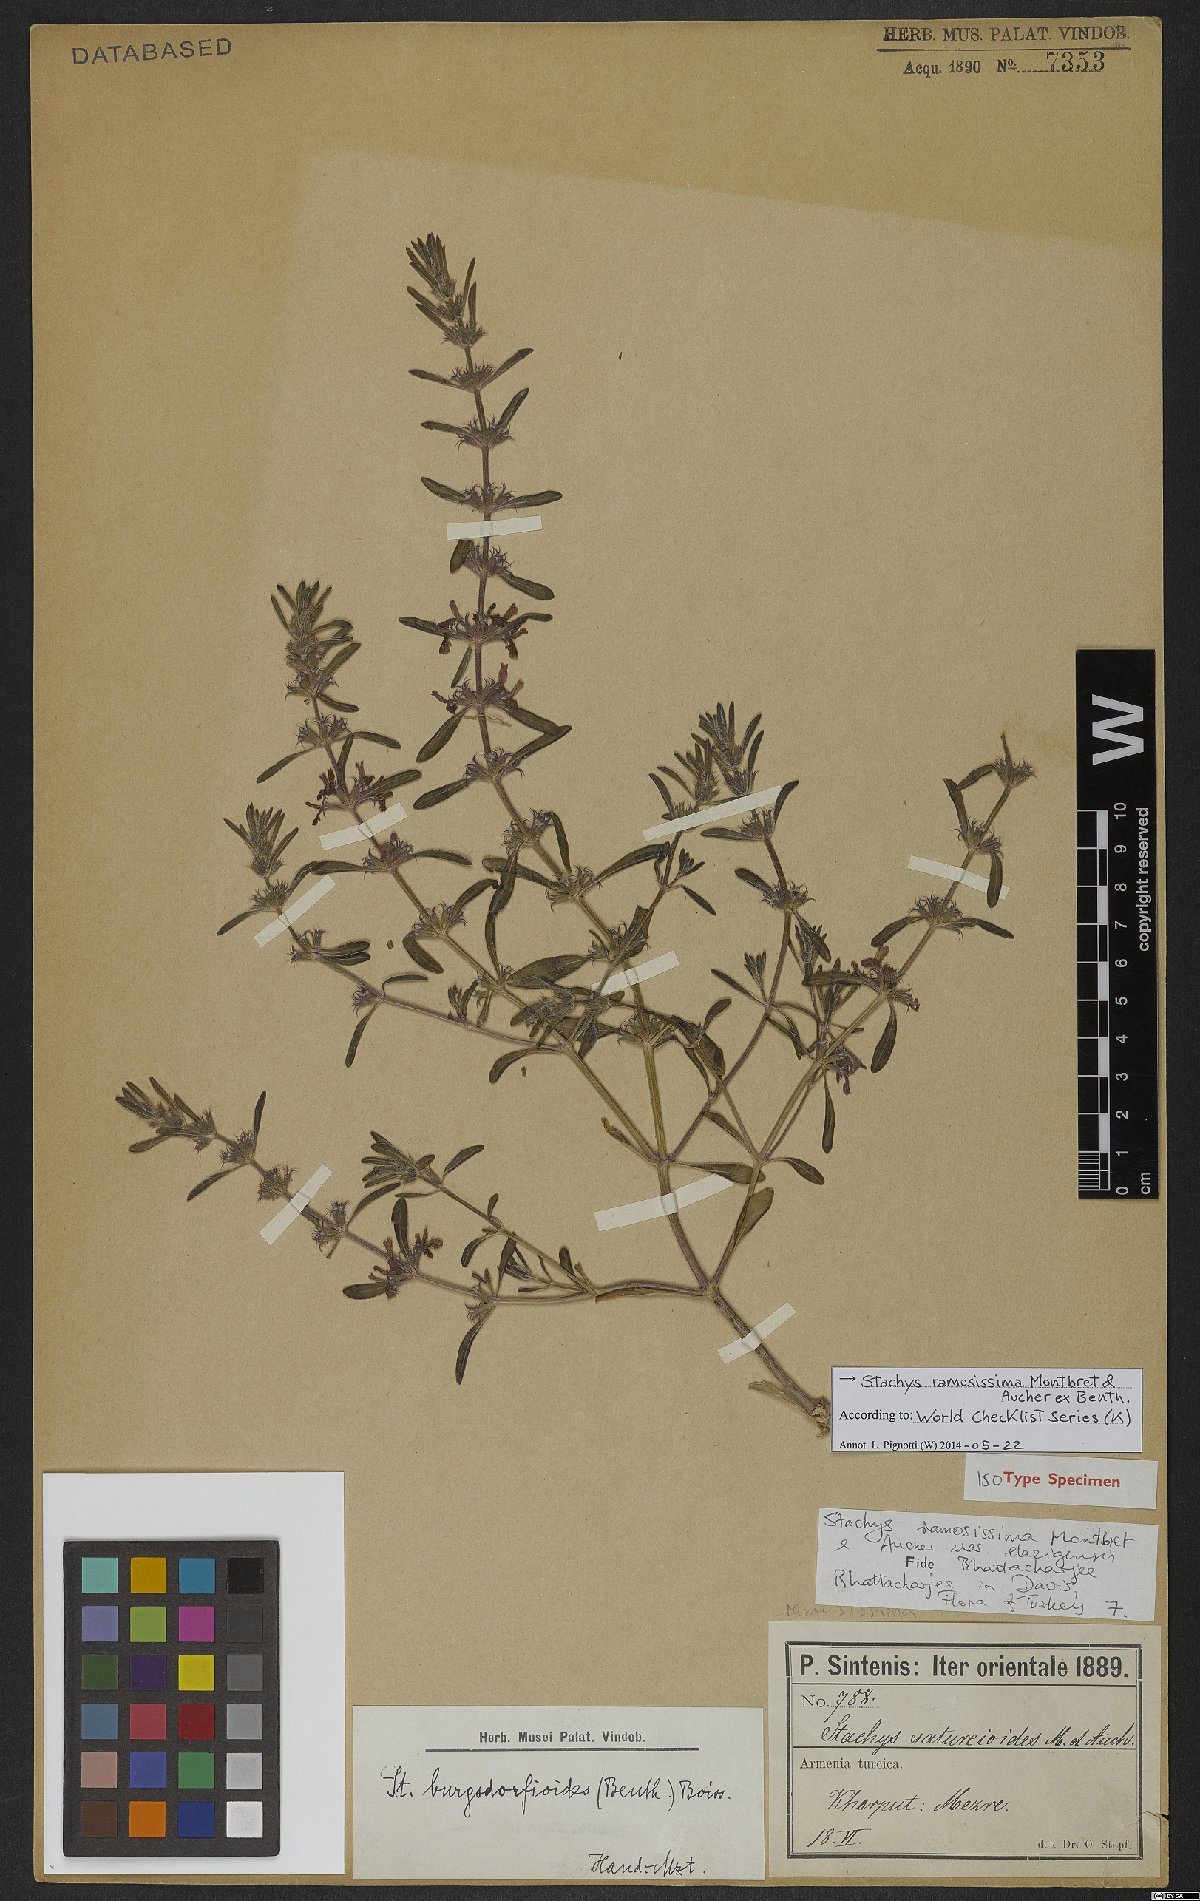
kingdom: Plantae
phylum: Tracheophyta
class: Magnoliopsida
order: Lamiales
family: Lamiaceae
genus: Stachys
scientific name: Stachys ramosissima
